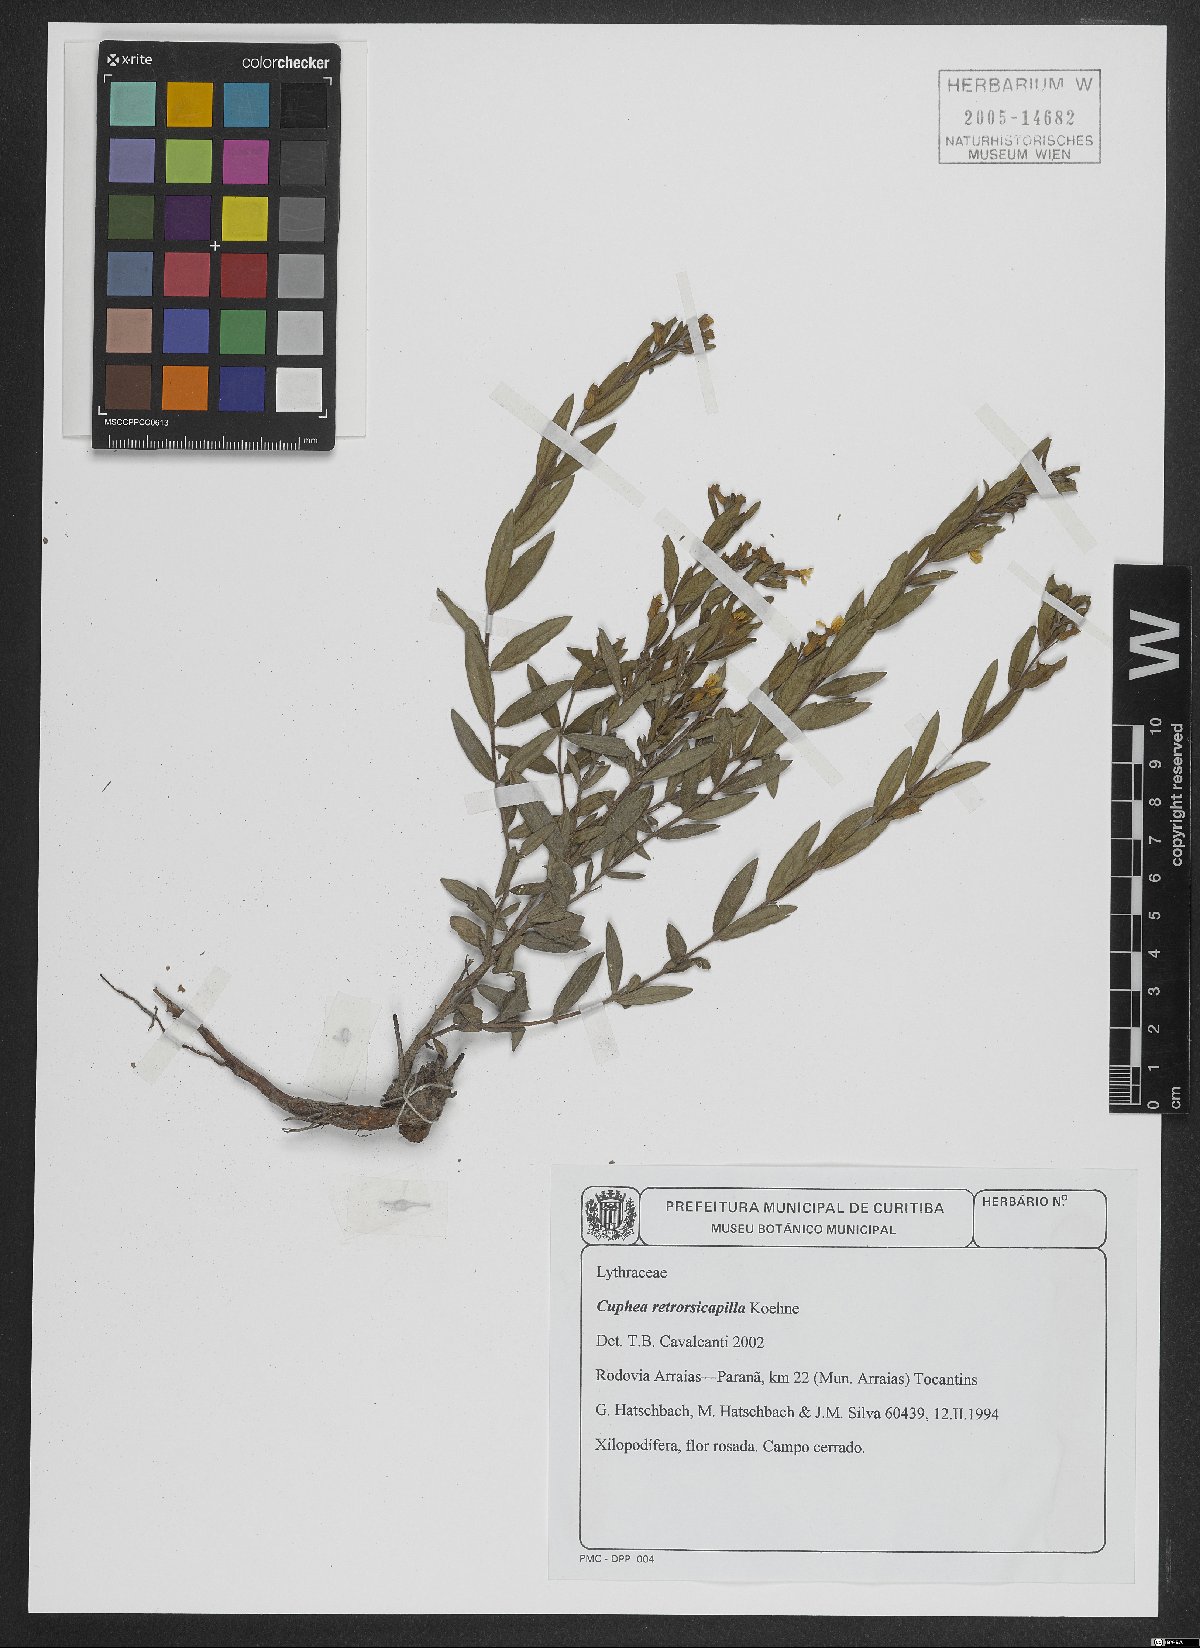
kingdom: Plantae
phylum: Tracheophyta
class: Magnoliopsida
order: Myrtales
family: Lythraceae
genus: Cuphea
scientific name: Cuphea retrorsicapilla
